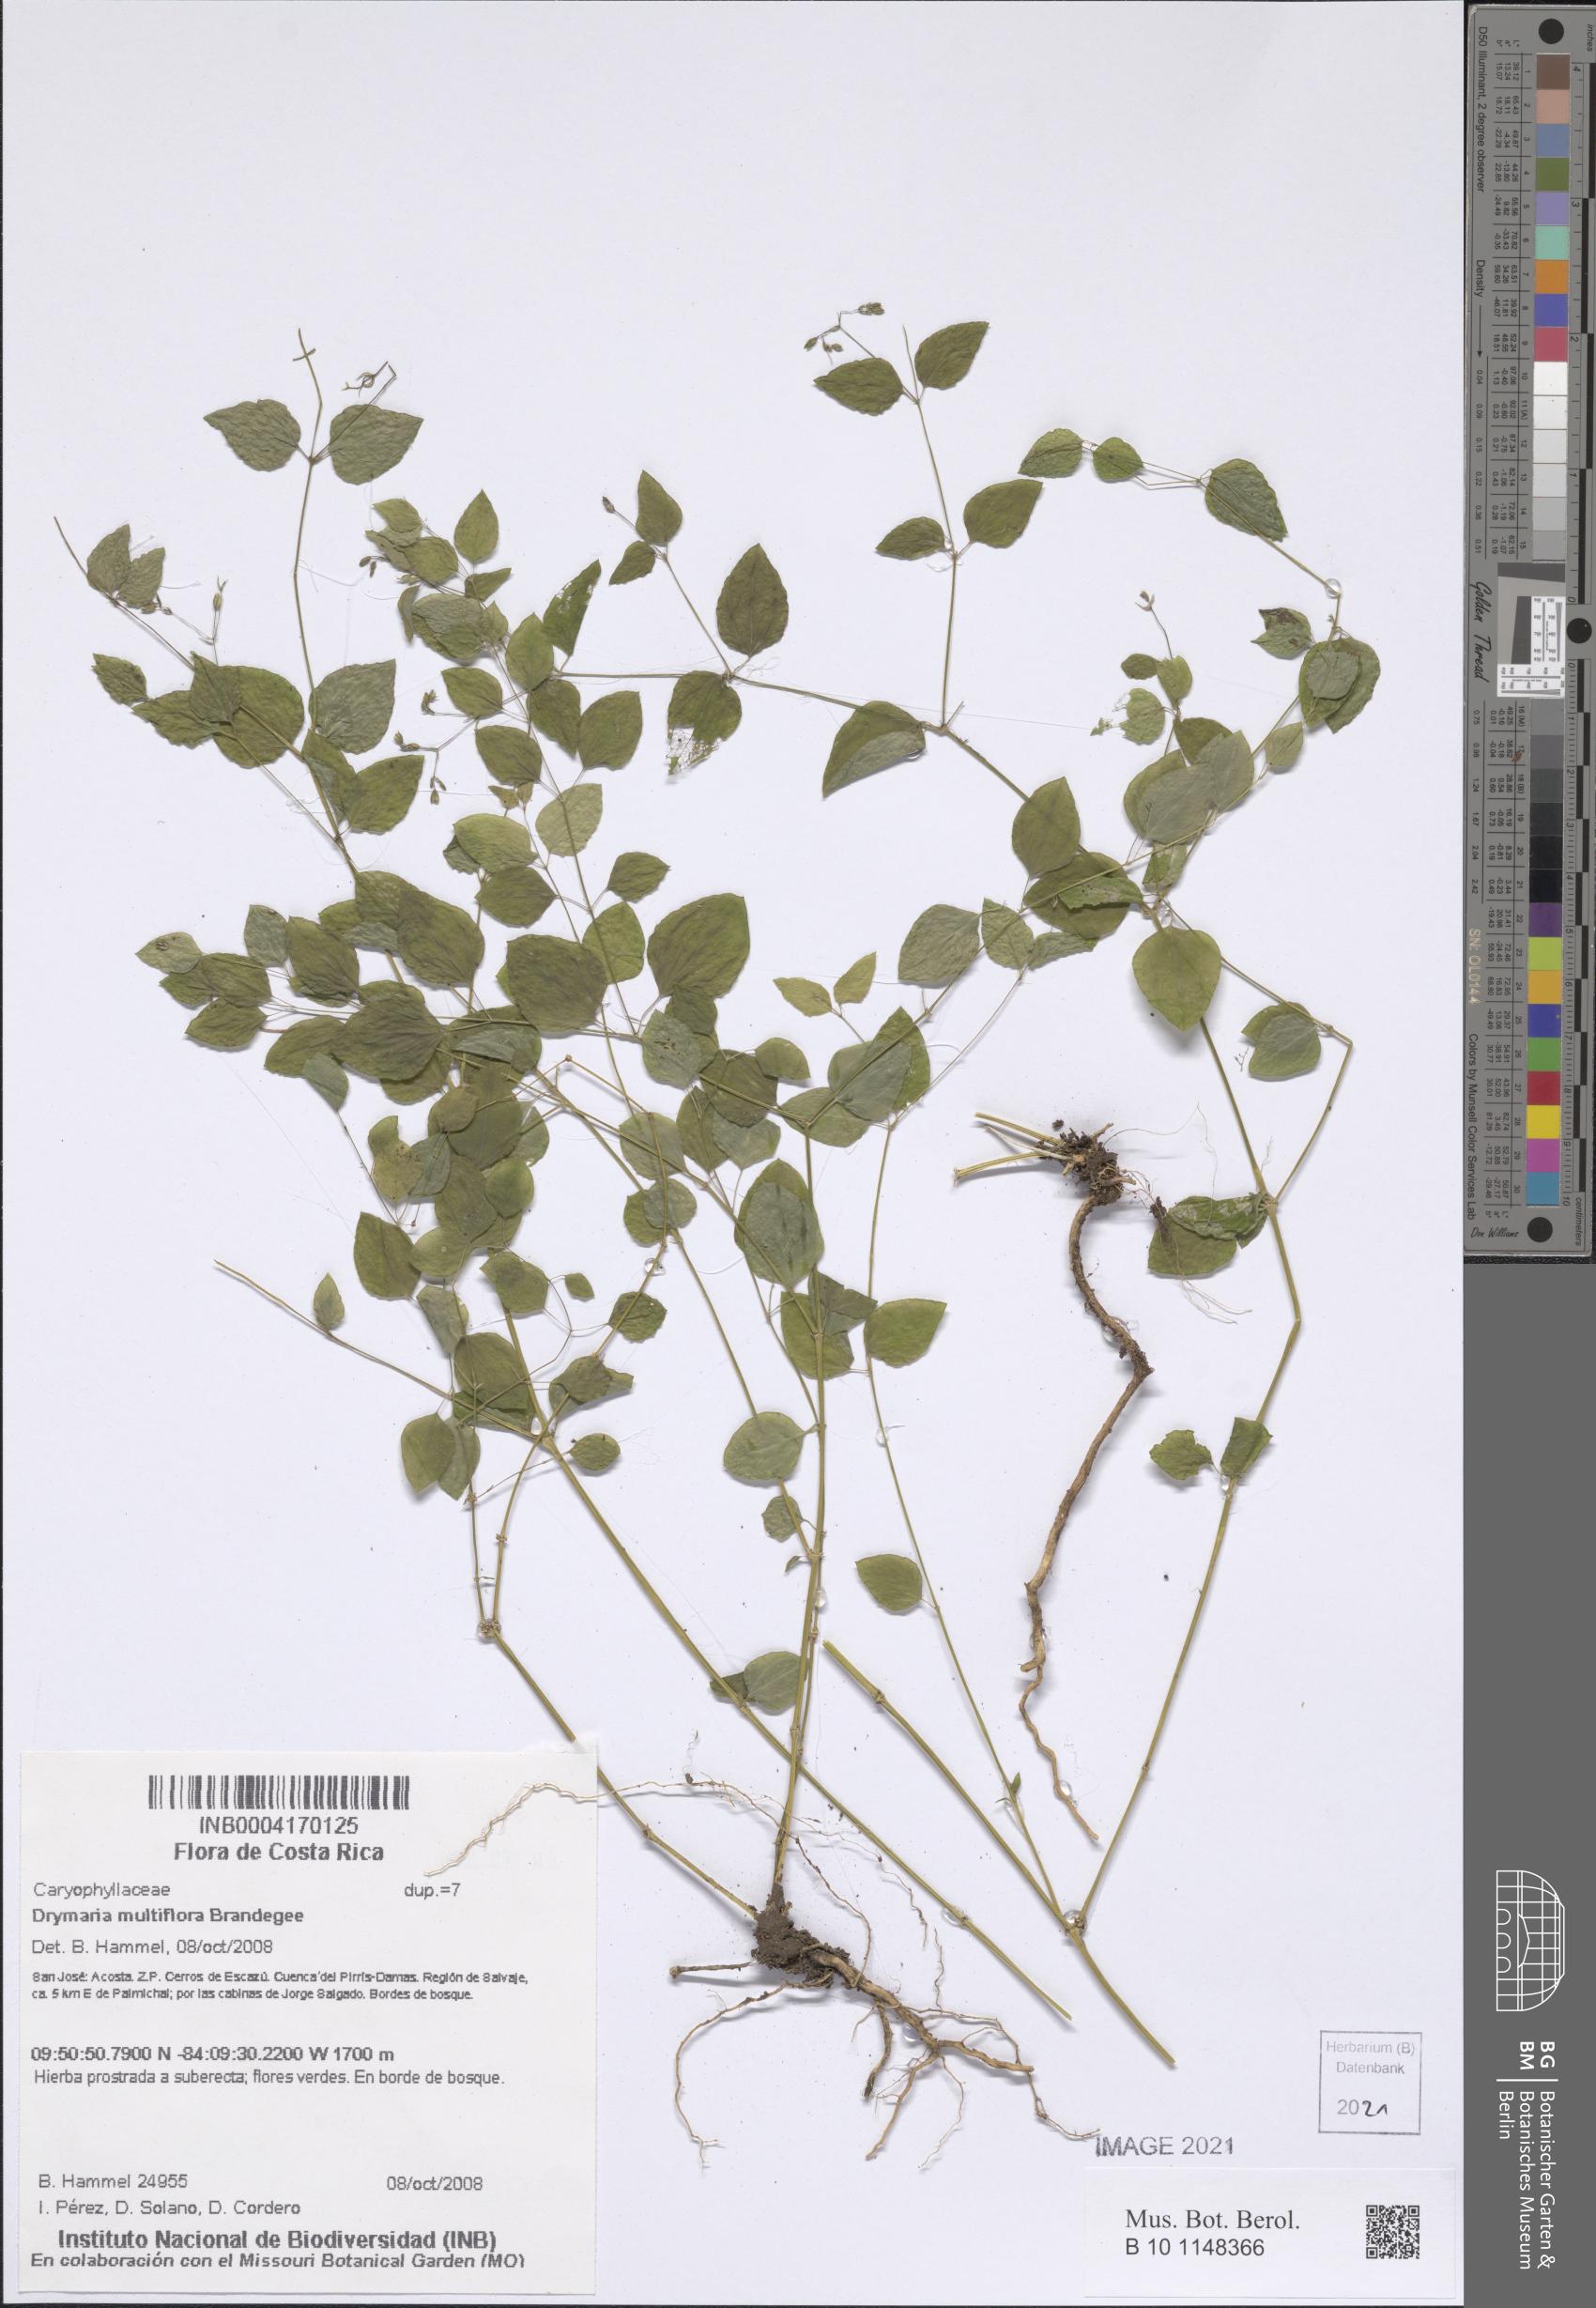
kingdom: Plantae
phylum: Tracheophyta
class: Magnoliopsida
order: Caryophyllales
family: Caryophyllaceae
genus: Drymaria
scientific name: Drymaria ladewii
